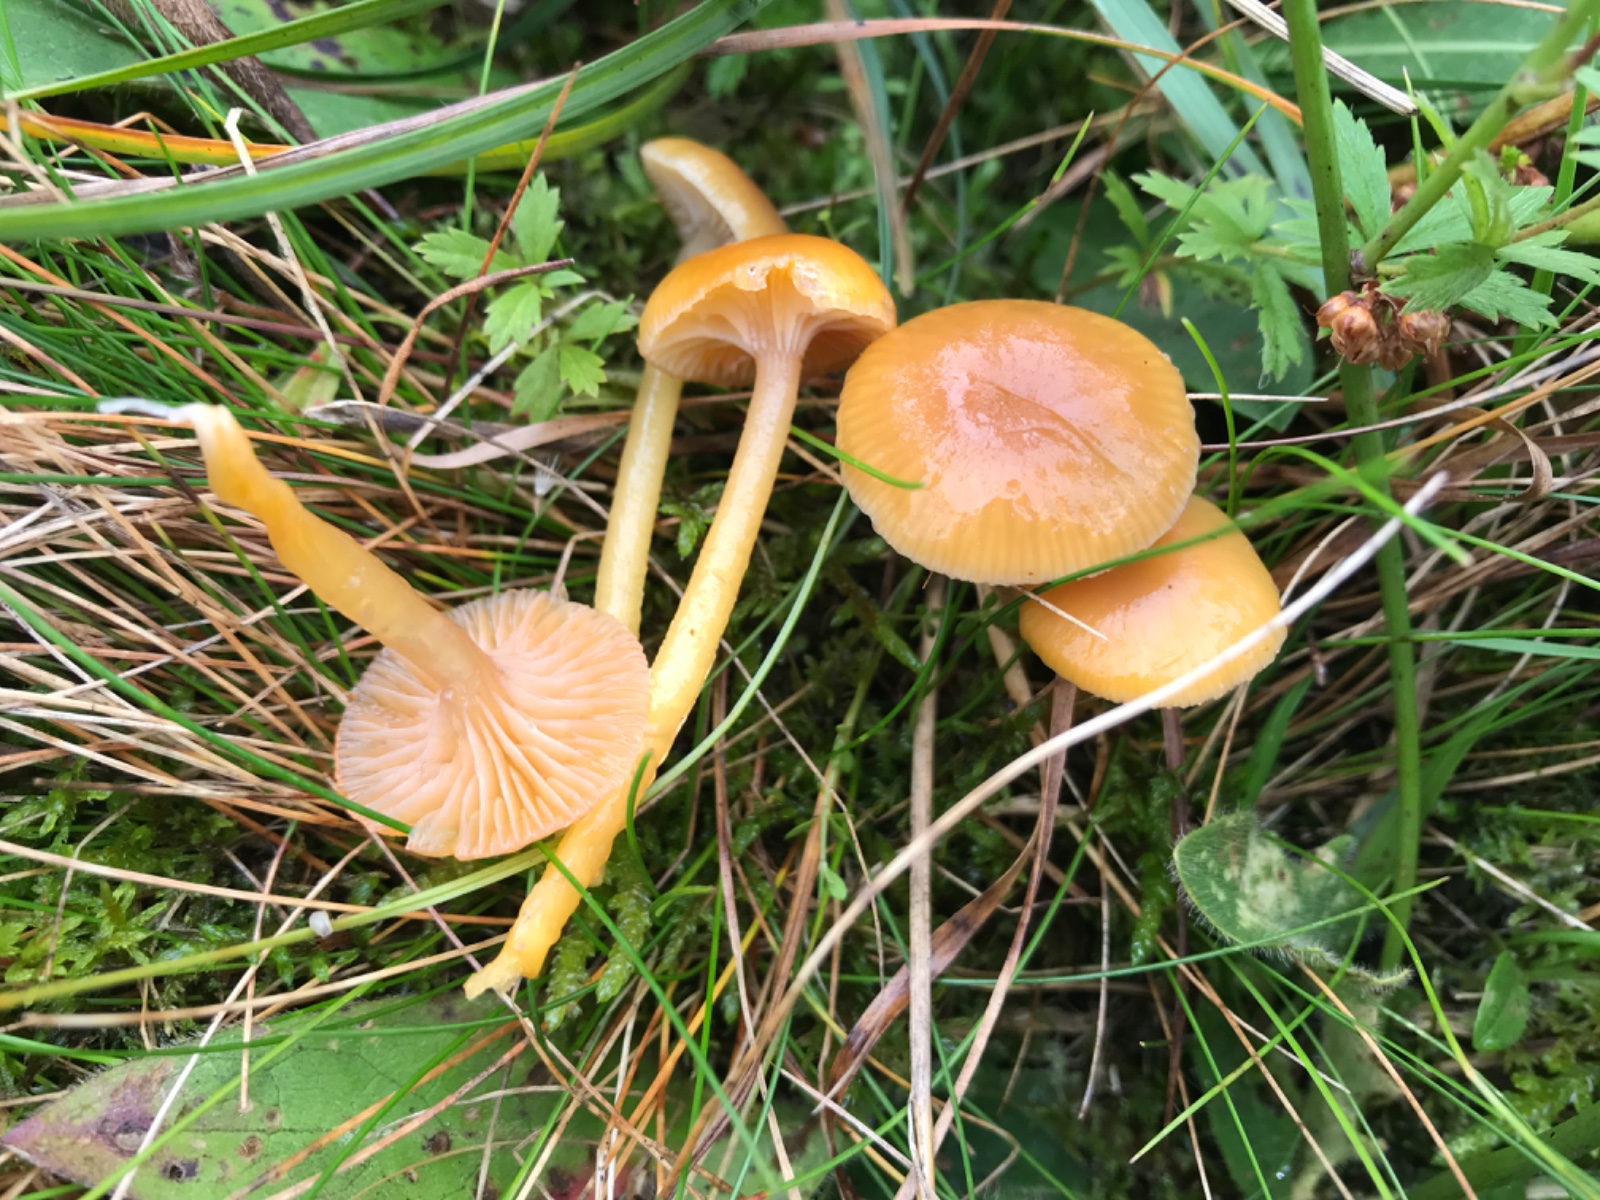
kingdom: Fungi
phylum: Basidiomycota
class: Agaricomycetes
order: Agaricales
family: Hygrophoraceae
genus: Gliophorus
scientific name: Gliophorus laetus
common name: brusk-vokshat
